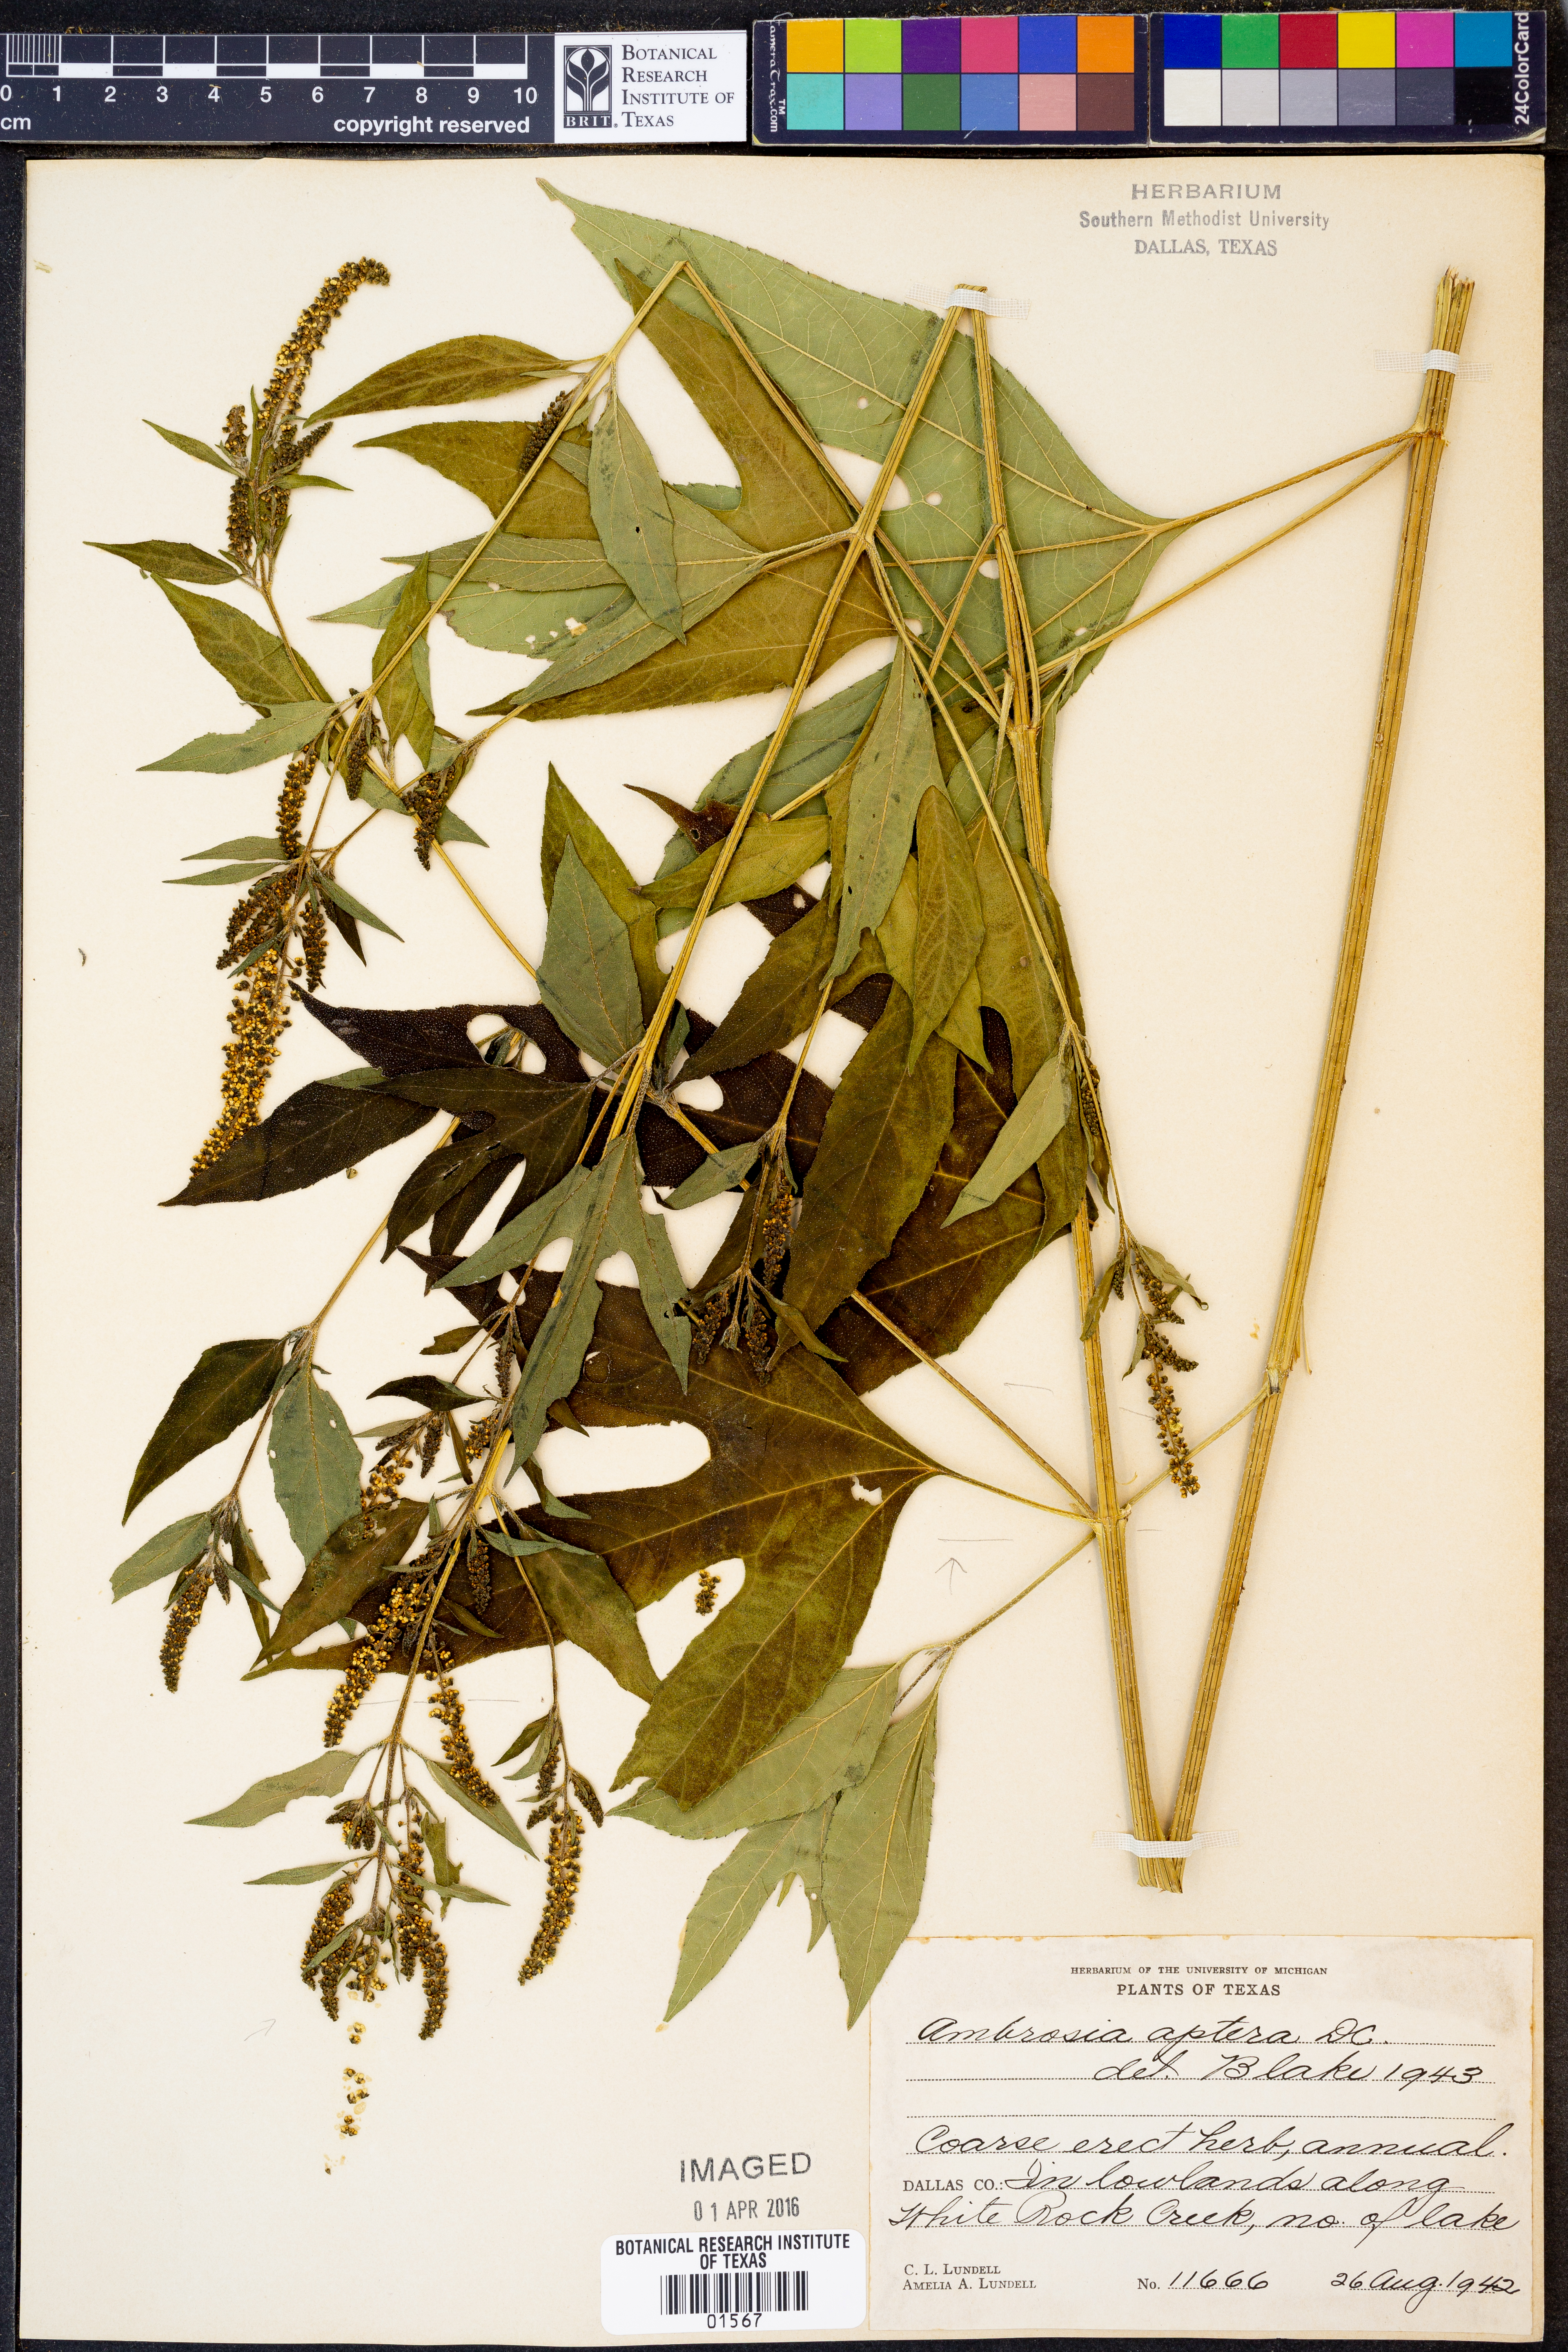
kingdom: Plantae
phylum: Tracheophyta
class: Magnoliopsida
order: Asterales
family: Asteraceae
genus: Ambrosia
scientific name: Ambrosia trifida
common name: Giant ragweed
